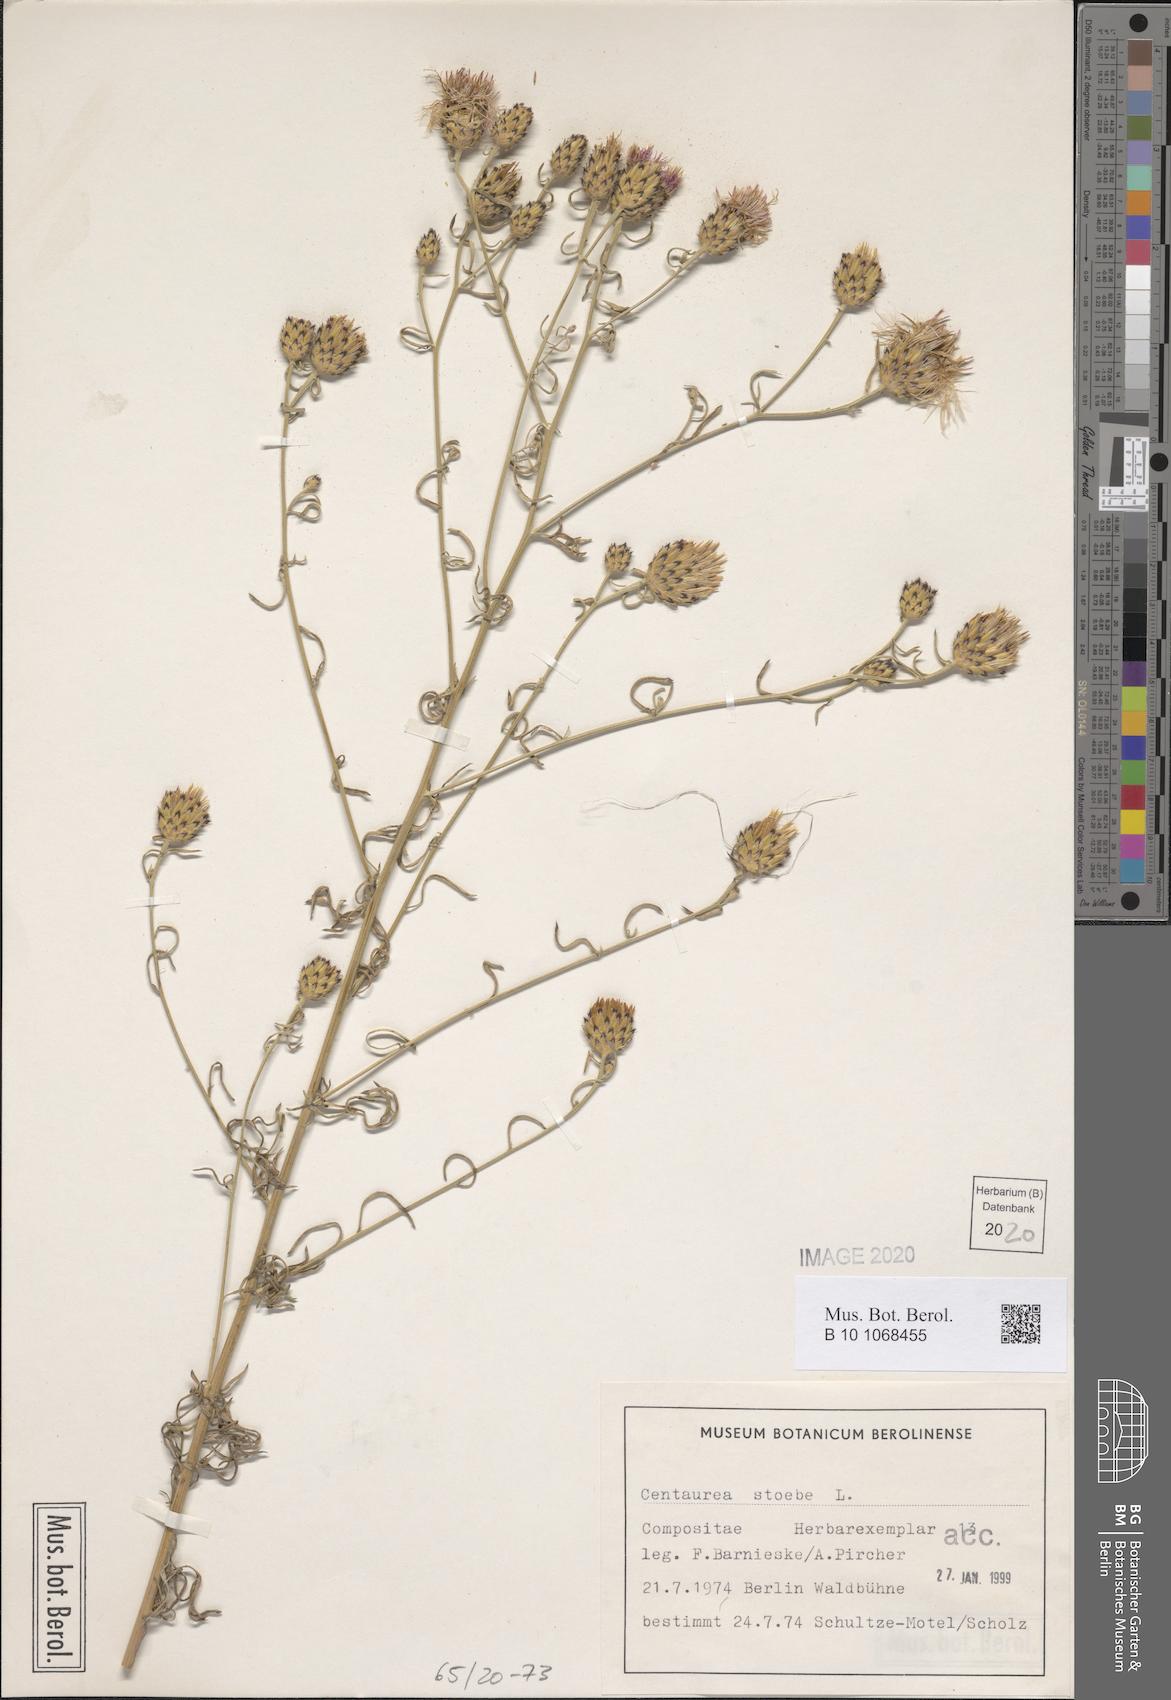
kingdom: Plantae
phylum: Tracheophyta
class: Magnoliopsida
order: Asterales
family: Asteraceae
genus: Centaurea
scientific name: Centaurea stoebe
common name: Spotted knapweed
